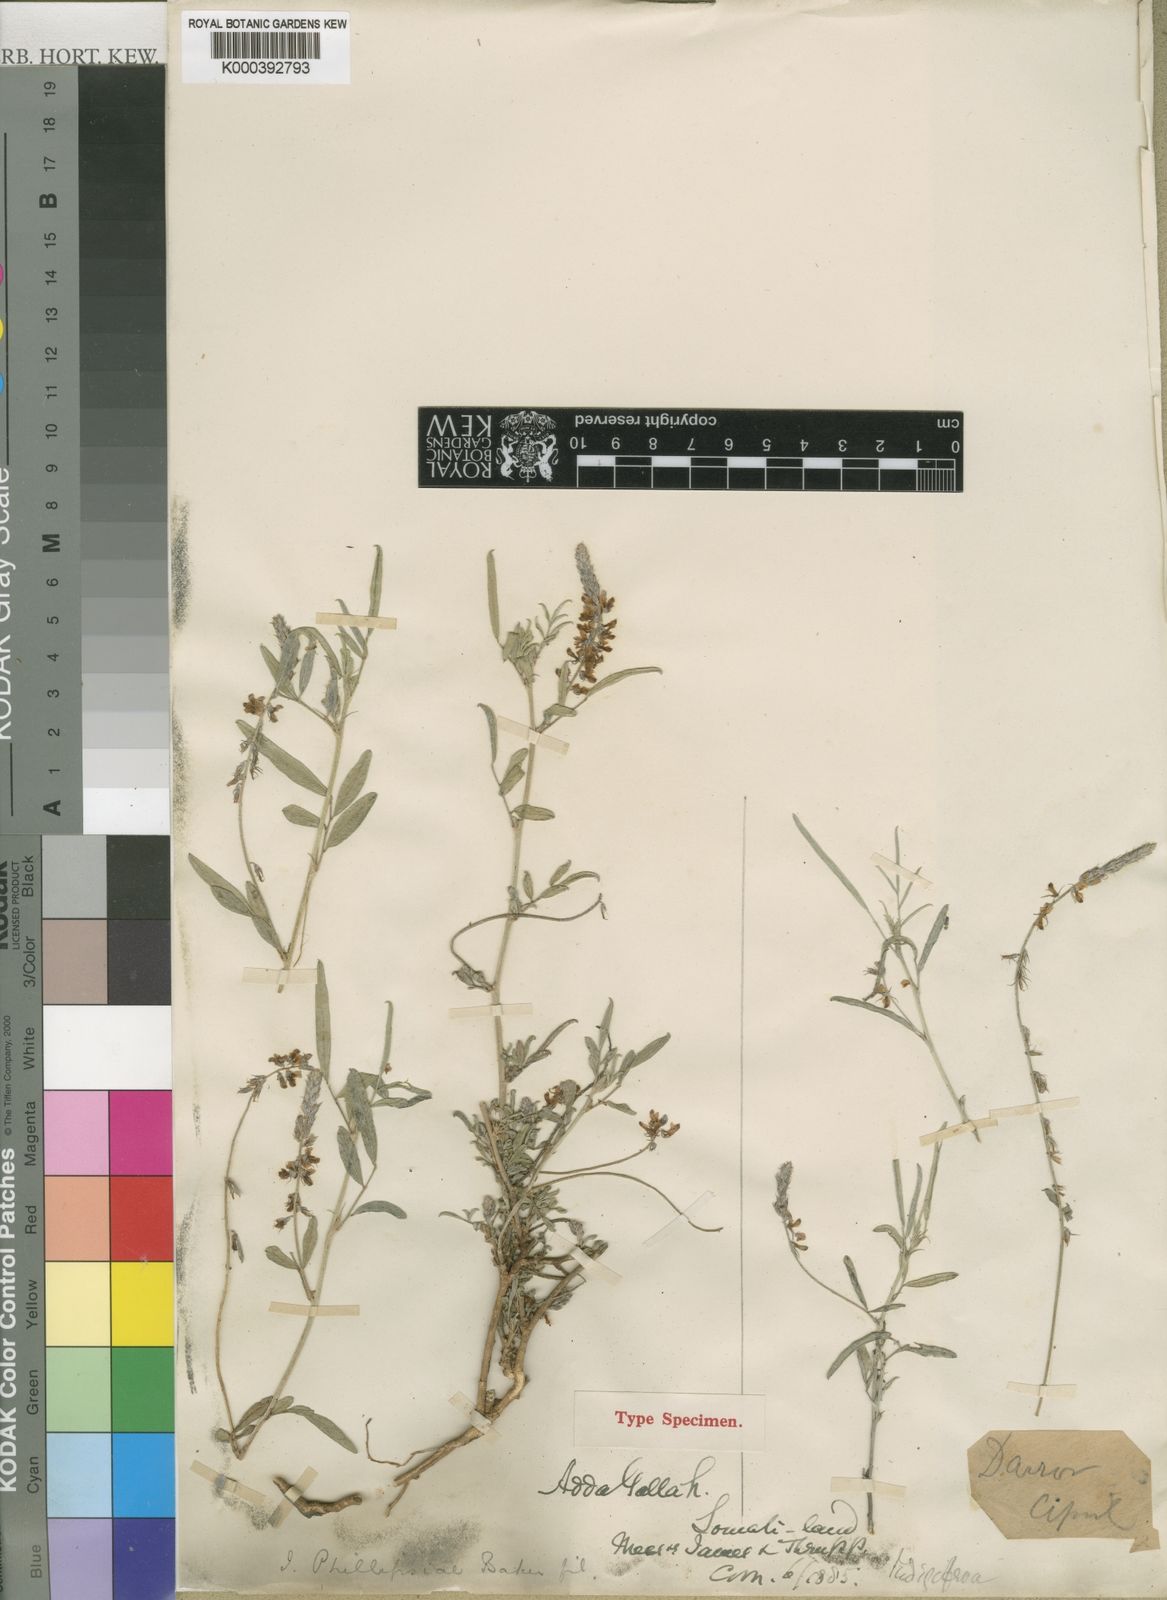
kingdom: Plantae
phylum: Tracheophyta
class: Magnoliopsida
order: Fabales
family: Fabaceae
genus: Indigofera
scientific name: Indigofera volkensii
